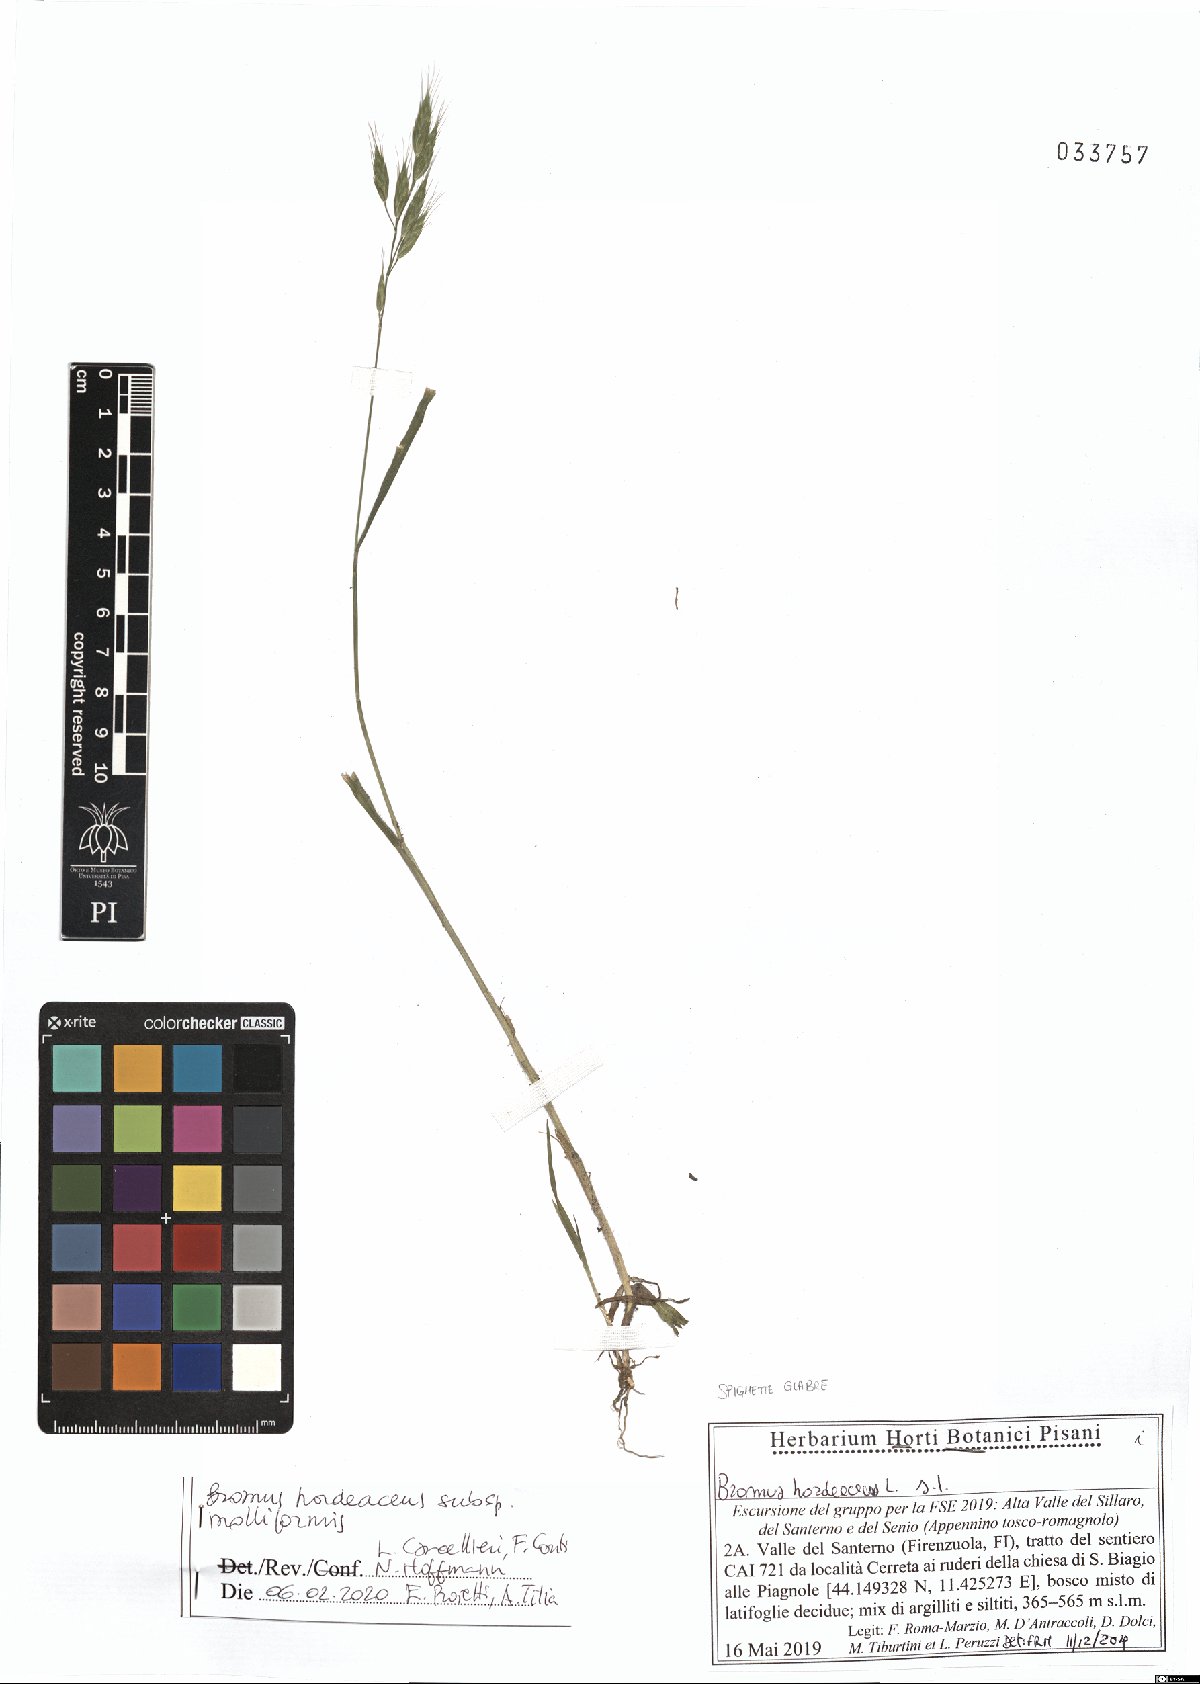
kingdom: Plantae
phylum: Tracheophyta
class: Liliopsida
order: Poales
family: Poaceae
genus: Bromus
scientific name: Bromus hordeaceus
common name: Soft brome
